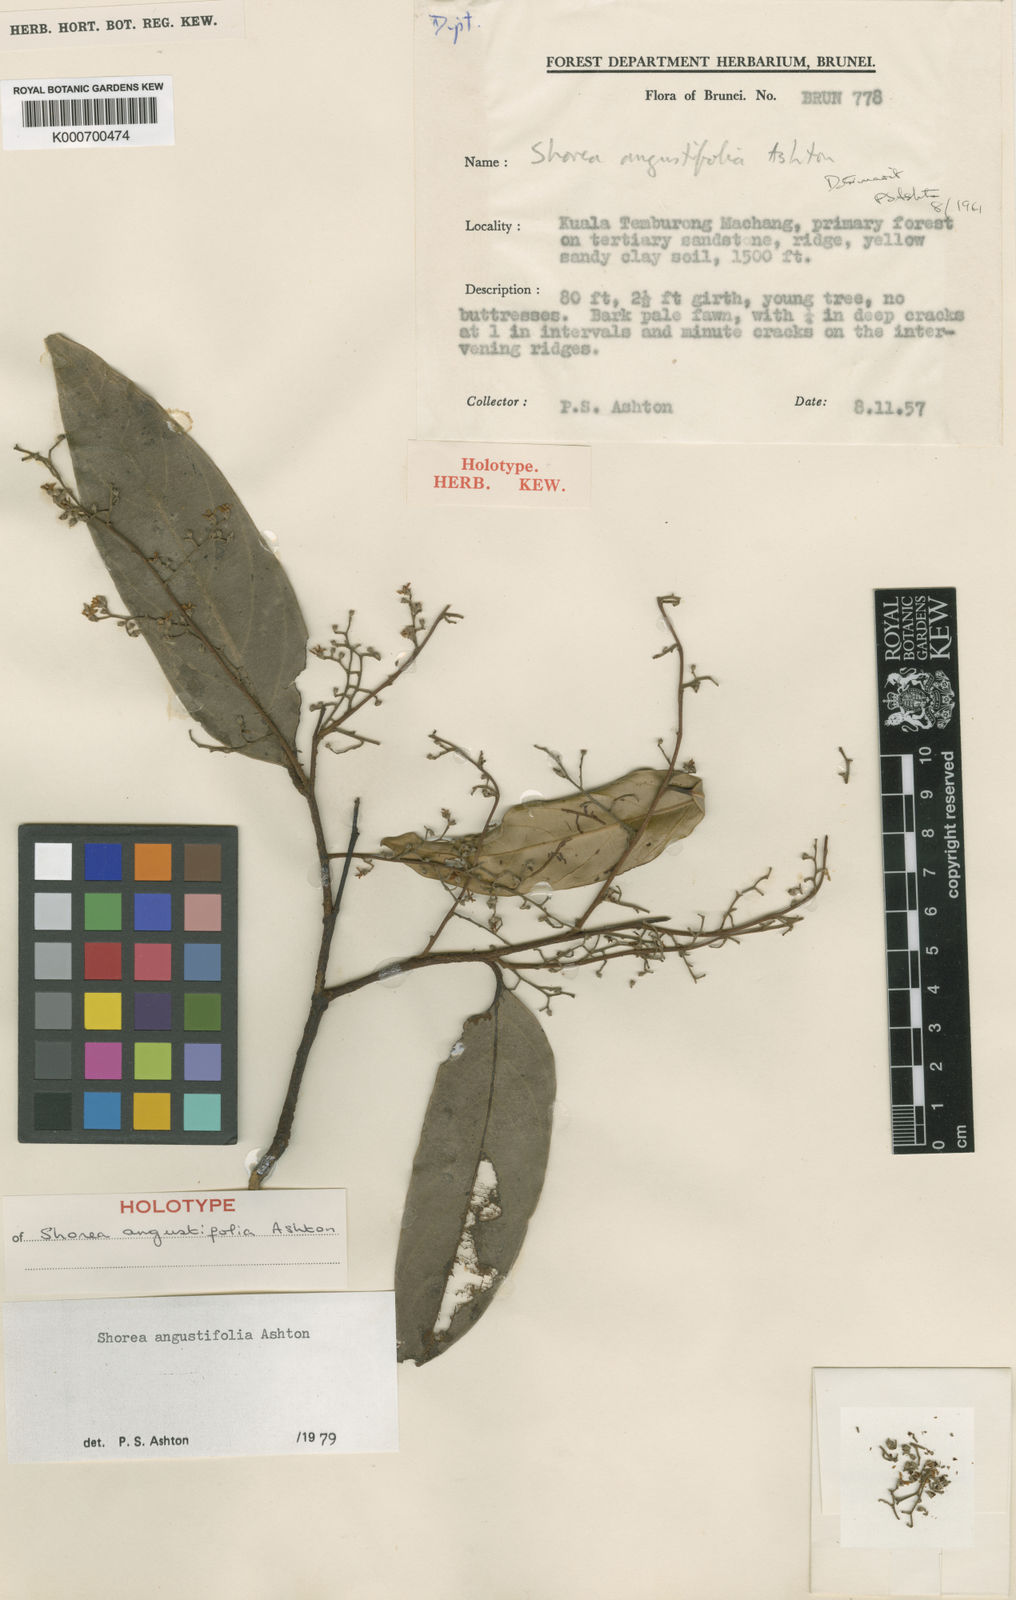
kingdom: Plantae
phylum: Tracheophyta
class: Magnoliopsida
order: Malvales
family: Dipterocarpaceae
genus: Shorea
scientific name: Shorea angustifolia
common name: Yellow meranti
